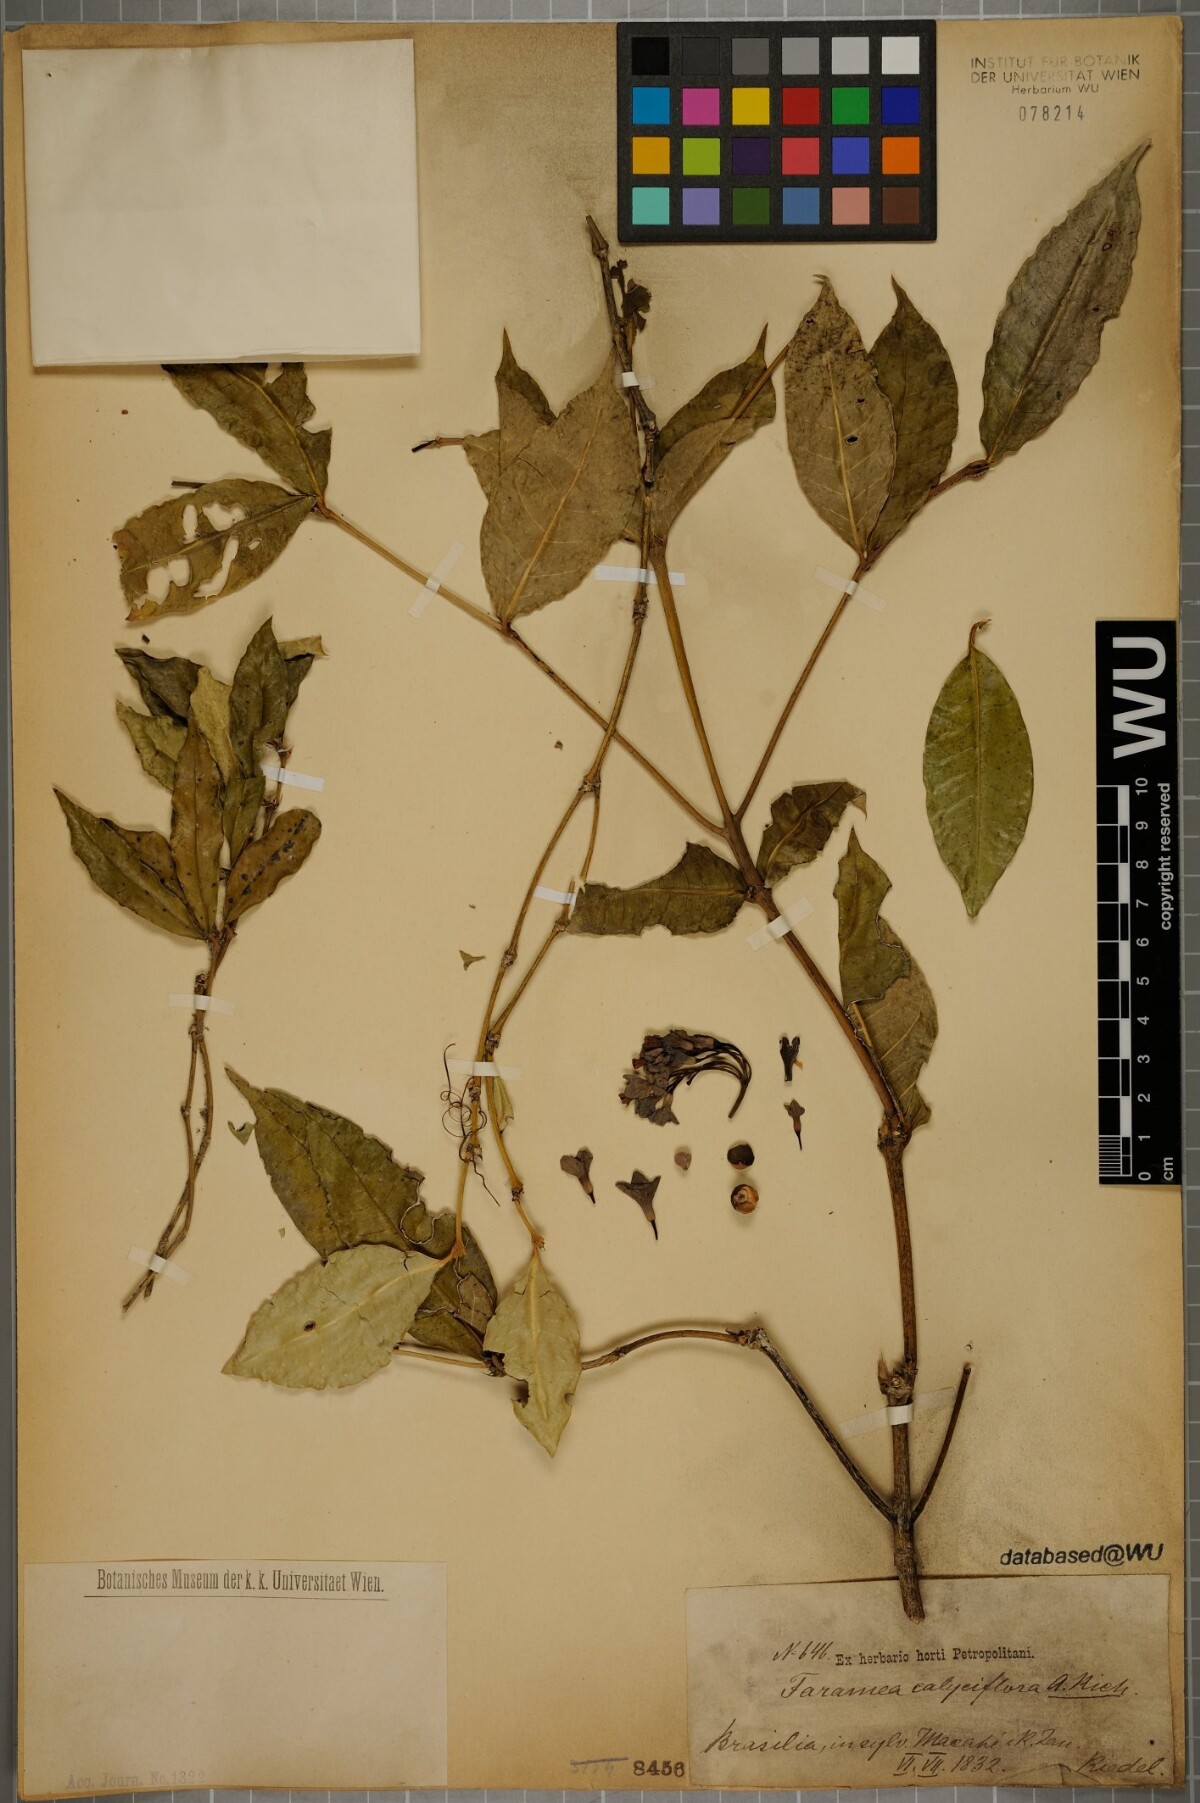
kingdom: Plantae
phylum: Tracheophyta
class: Magnoliopsida
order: Gentianales
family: Rubiaceae
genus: Faramea
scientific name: Faramea calyciflora
